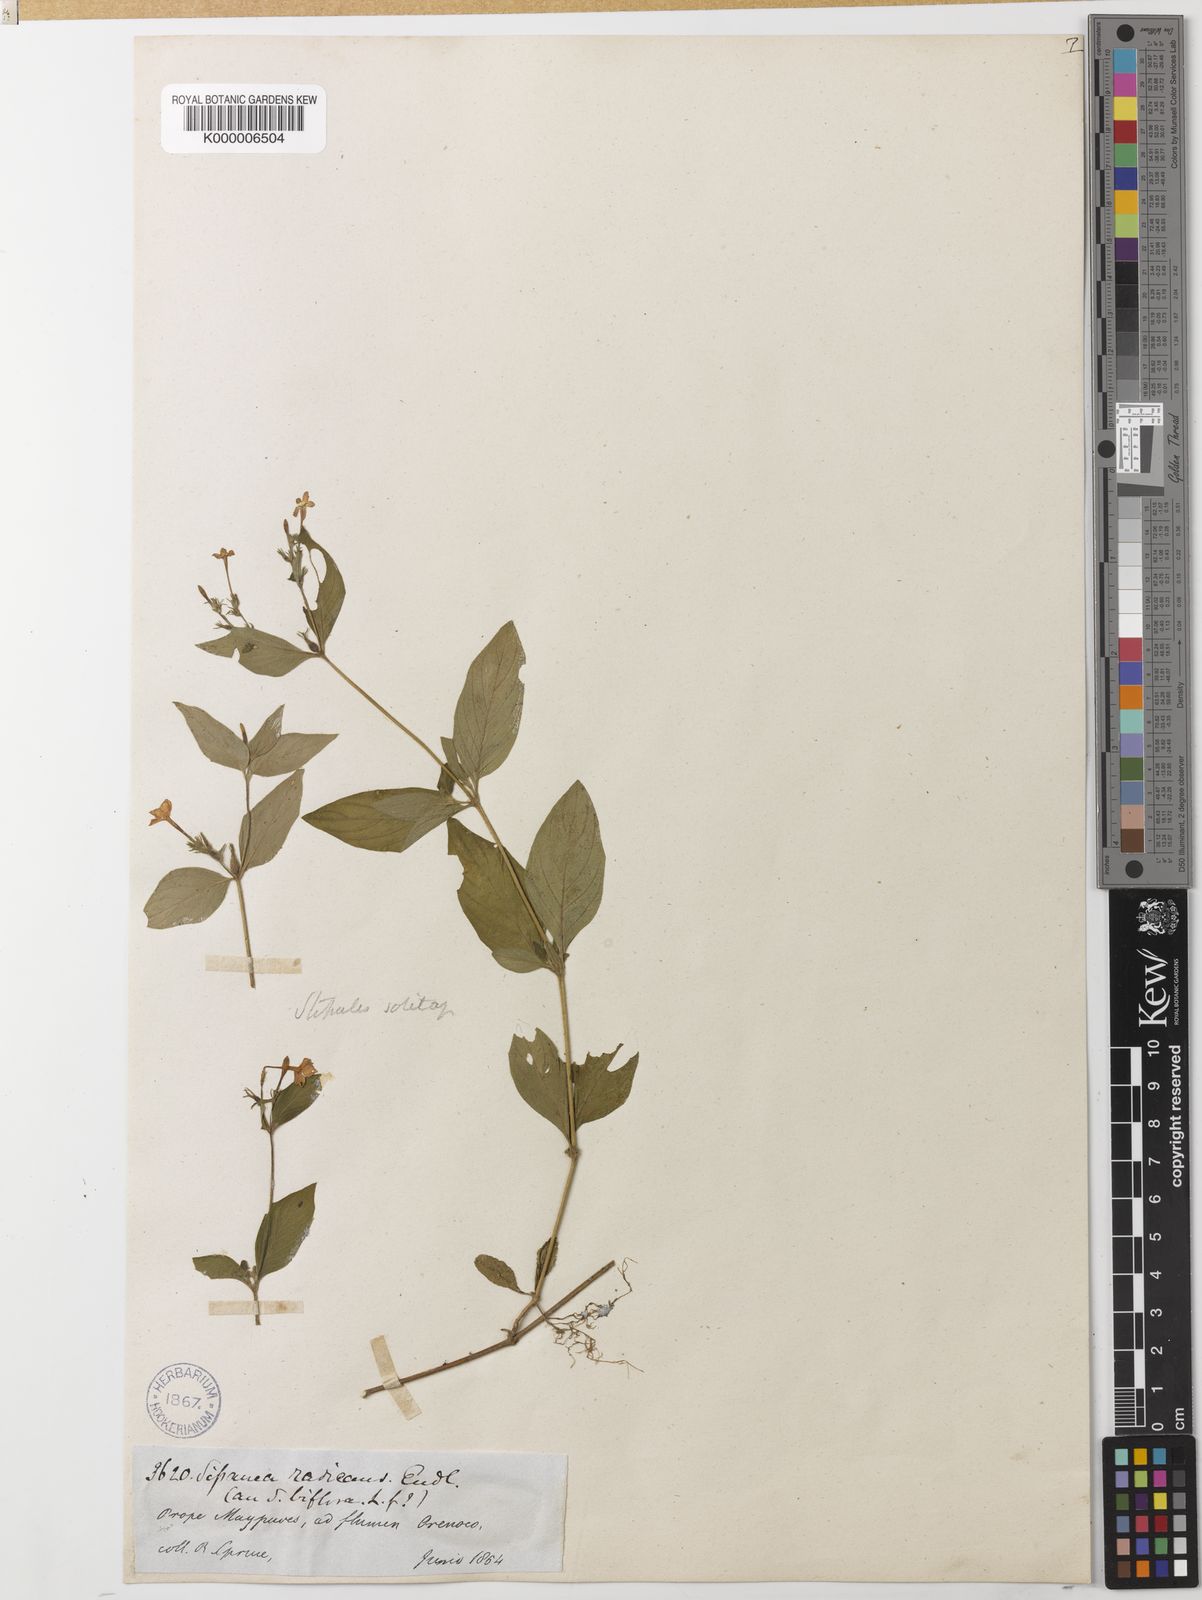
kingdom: Plantae
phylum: Tracheophyta
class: Magnoliopsida
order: Gentianales
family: Rubiaceae
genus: Sipanea
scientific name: Sipanea
